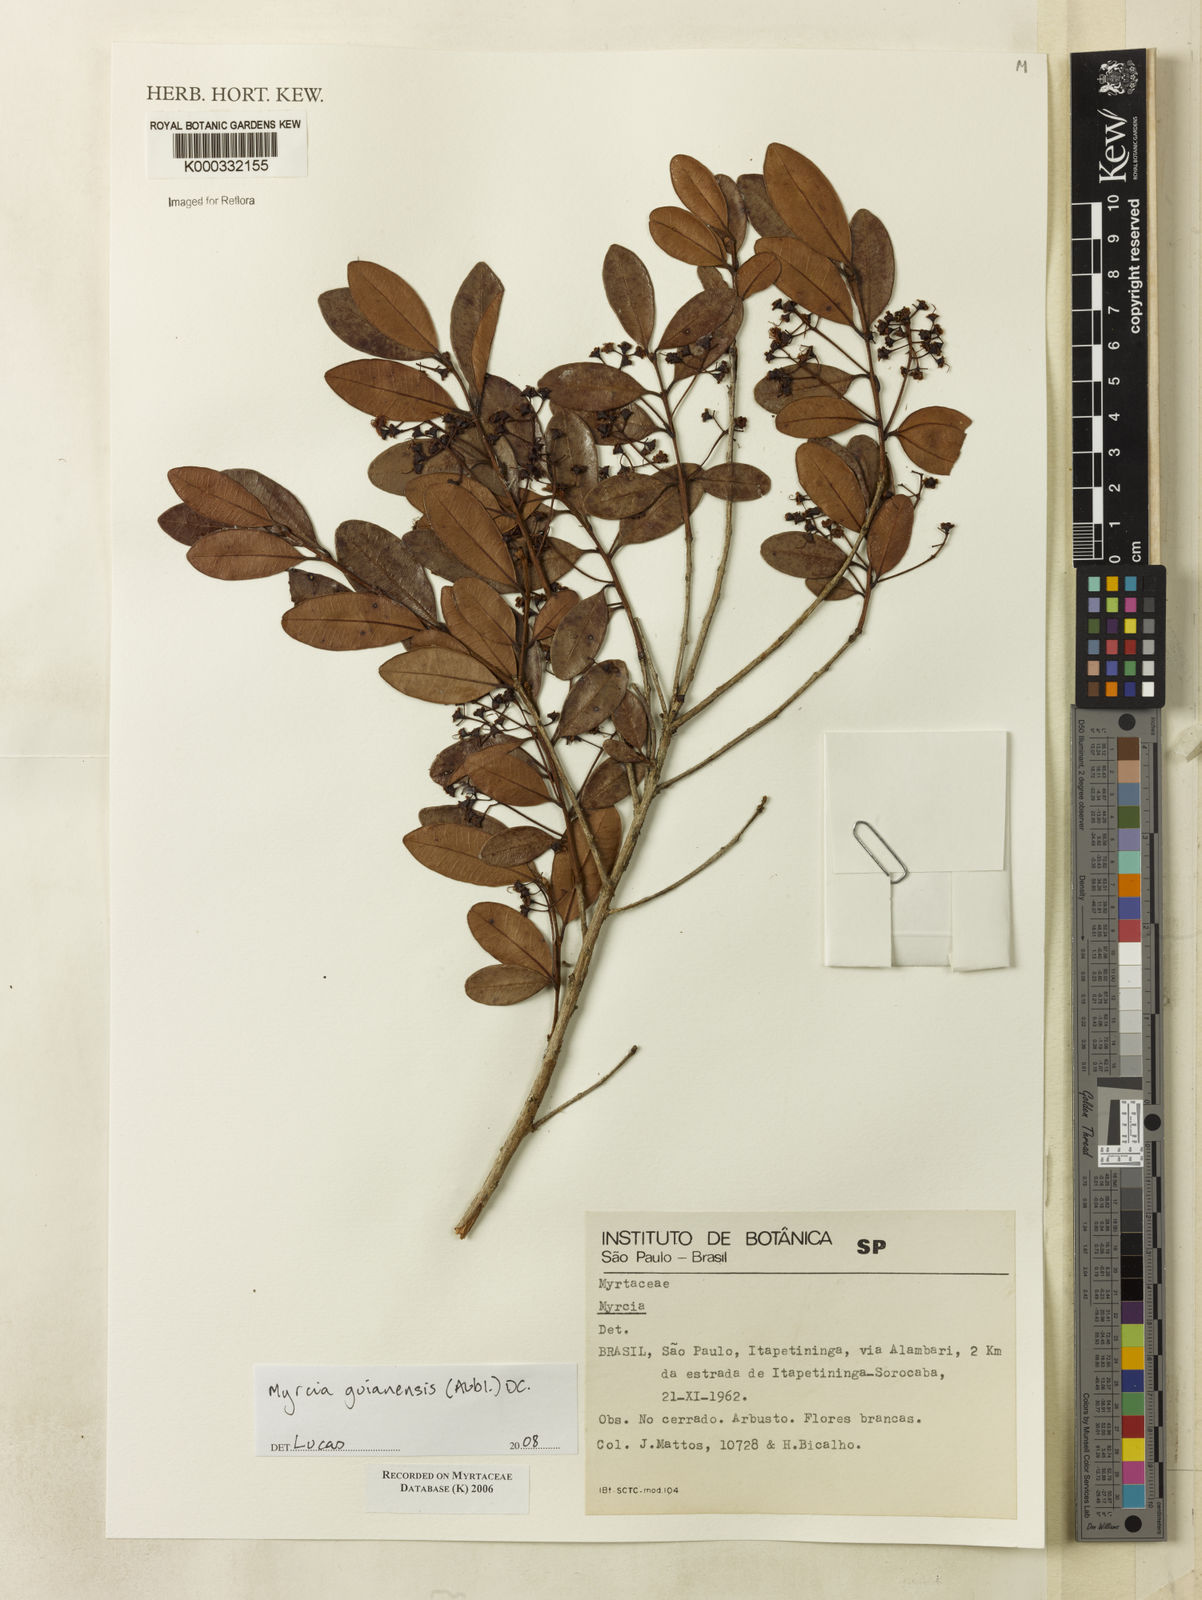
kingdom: Plantae
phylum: Tracheophyta
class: Magnoliopsida
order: Myrtales
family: Myrtaceae
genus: Myrcia
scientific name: Myrcia
